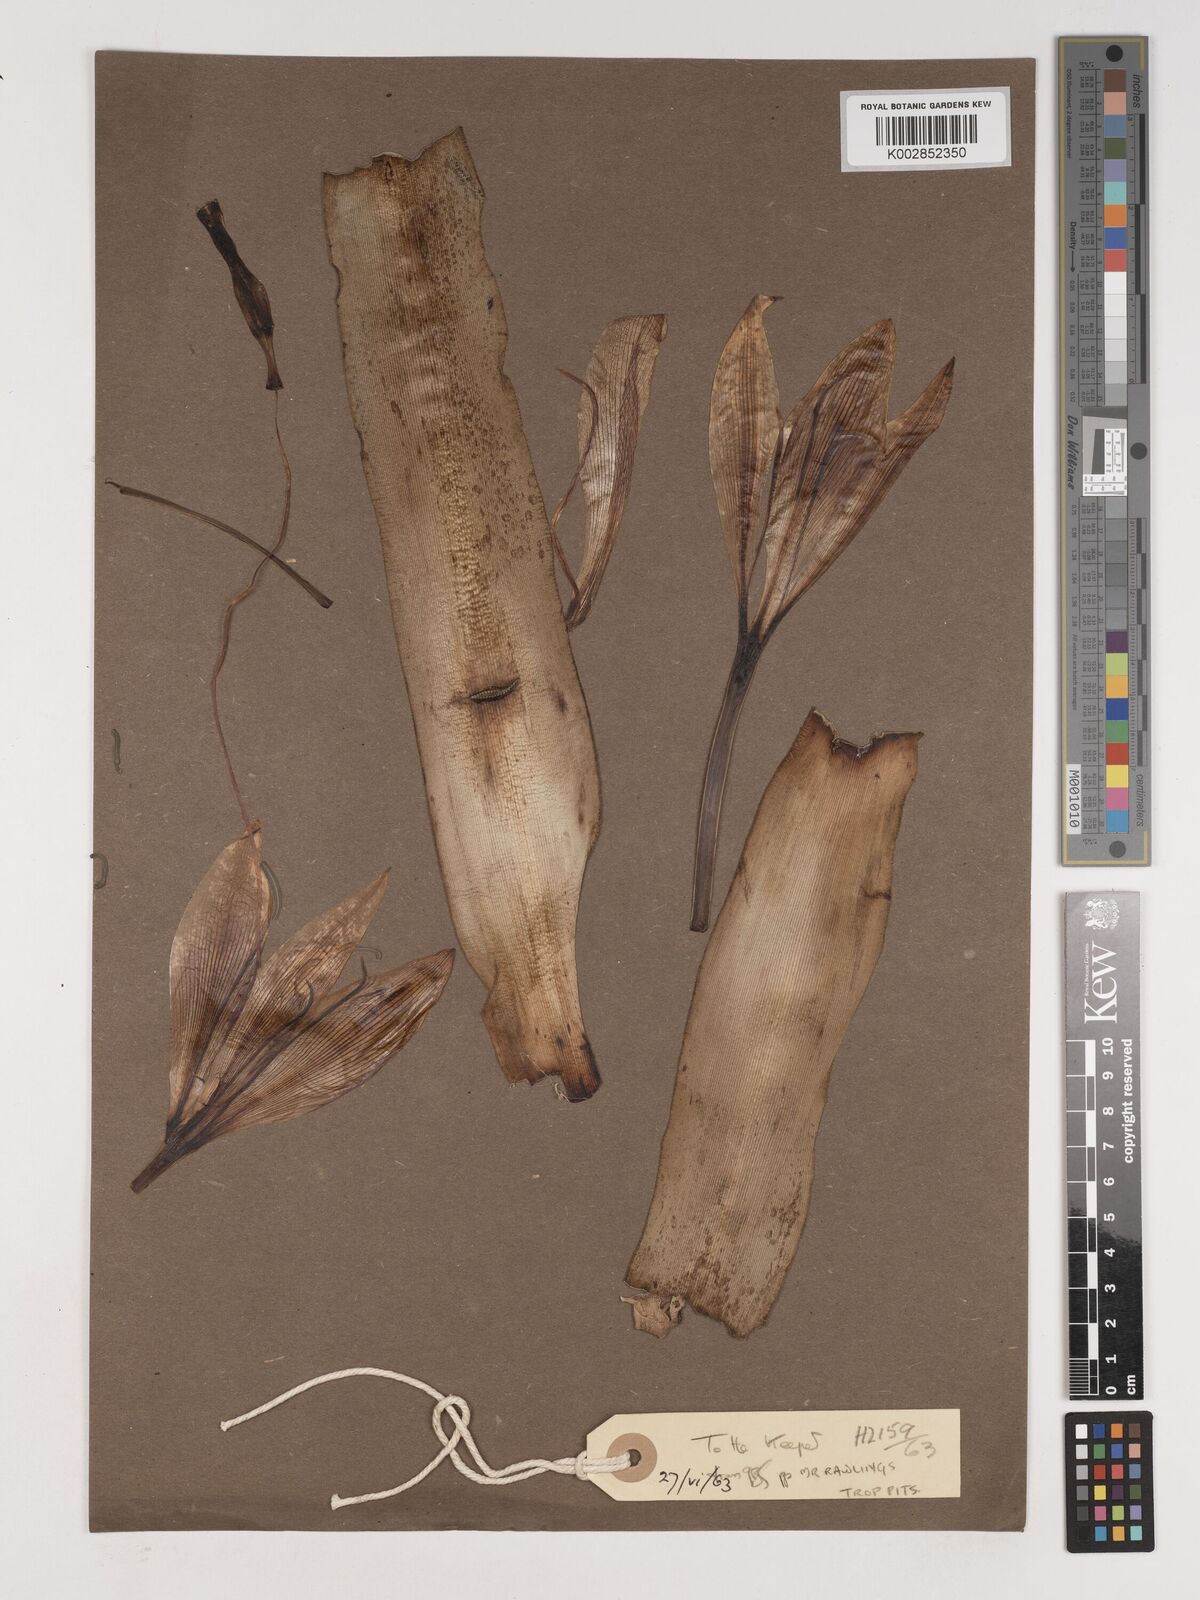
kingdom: Plantae
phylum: Tracheophyta
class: Liliopsida
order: Asparagales
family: Amaryllidaceae
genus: Crinum
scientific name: Crinum
